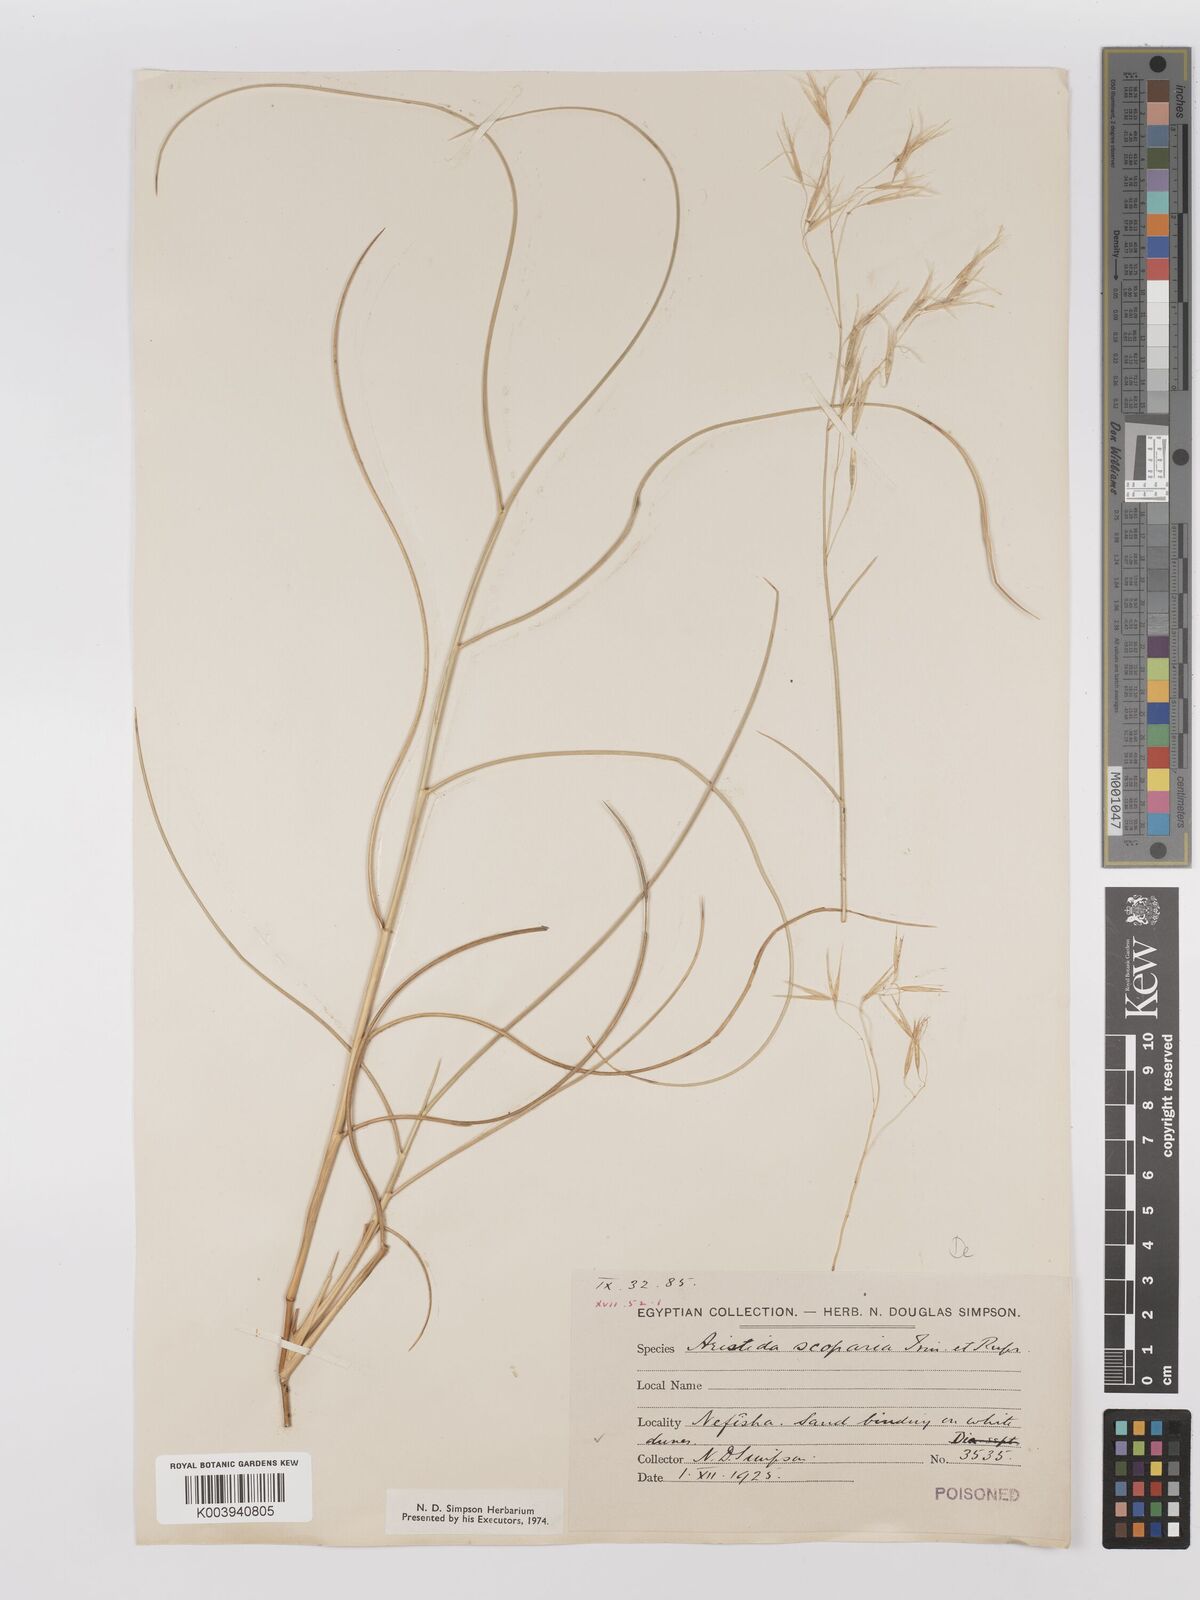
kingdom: Plantae
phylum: Tracheophyta
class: Liliopsida
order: Poales
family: Poaceae
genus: Stipagrostis
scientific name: Stipagrostis scoparia
